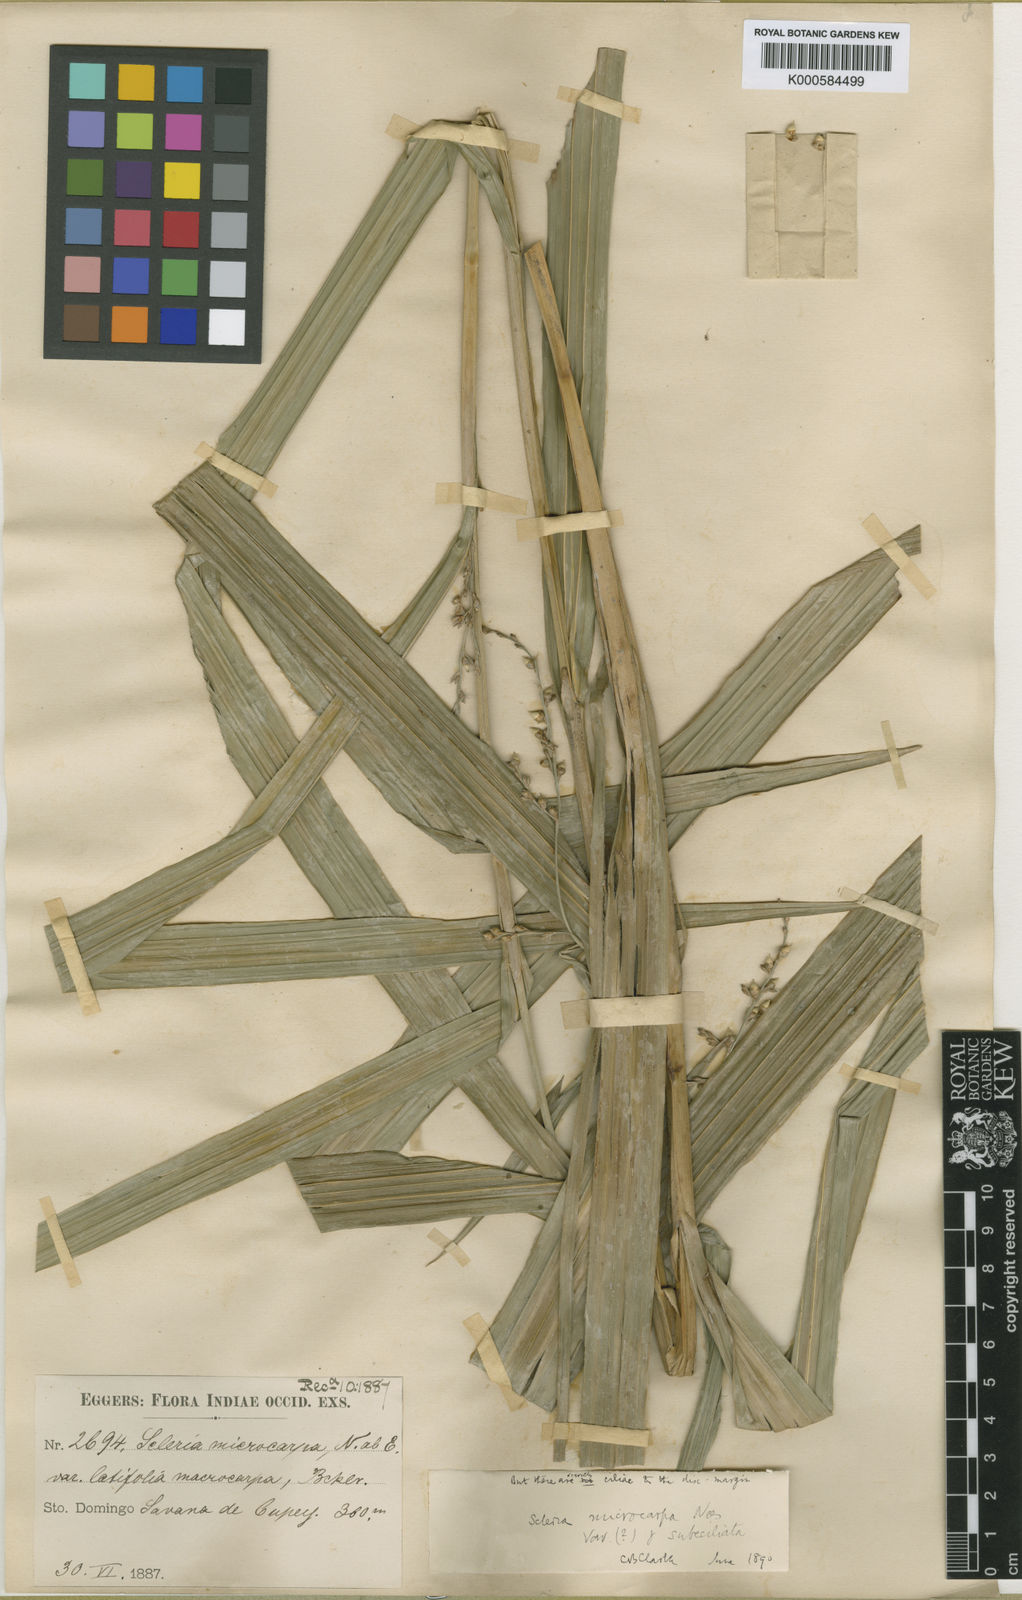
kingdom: Plantae
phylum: Tracheophyta
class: Liliopsida
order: Poales
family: Cyperaceae
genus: Scleria
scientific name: Scleria microcarpa
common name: Tropical nutrush
